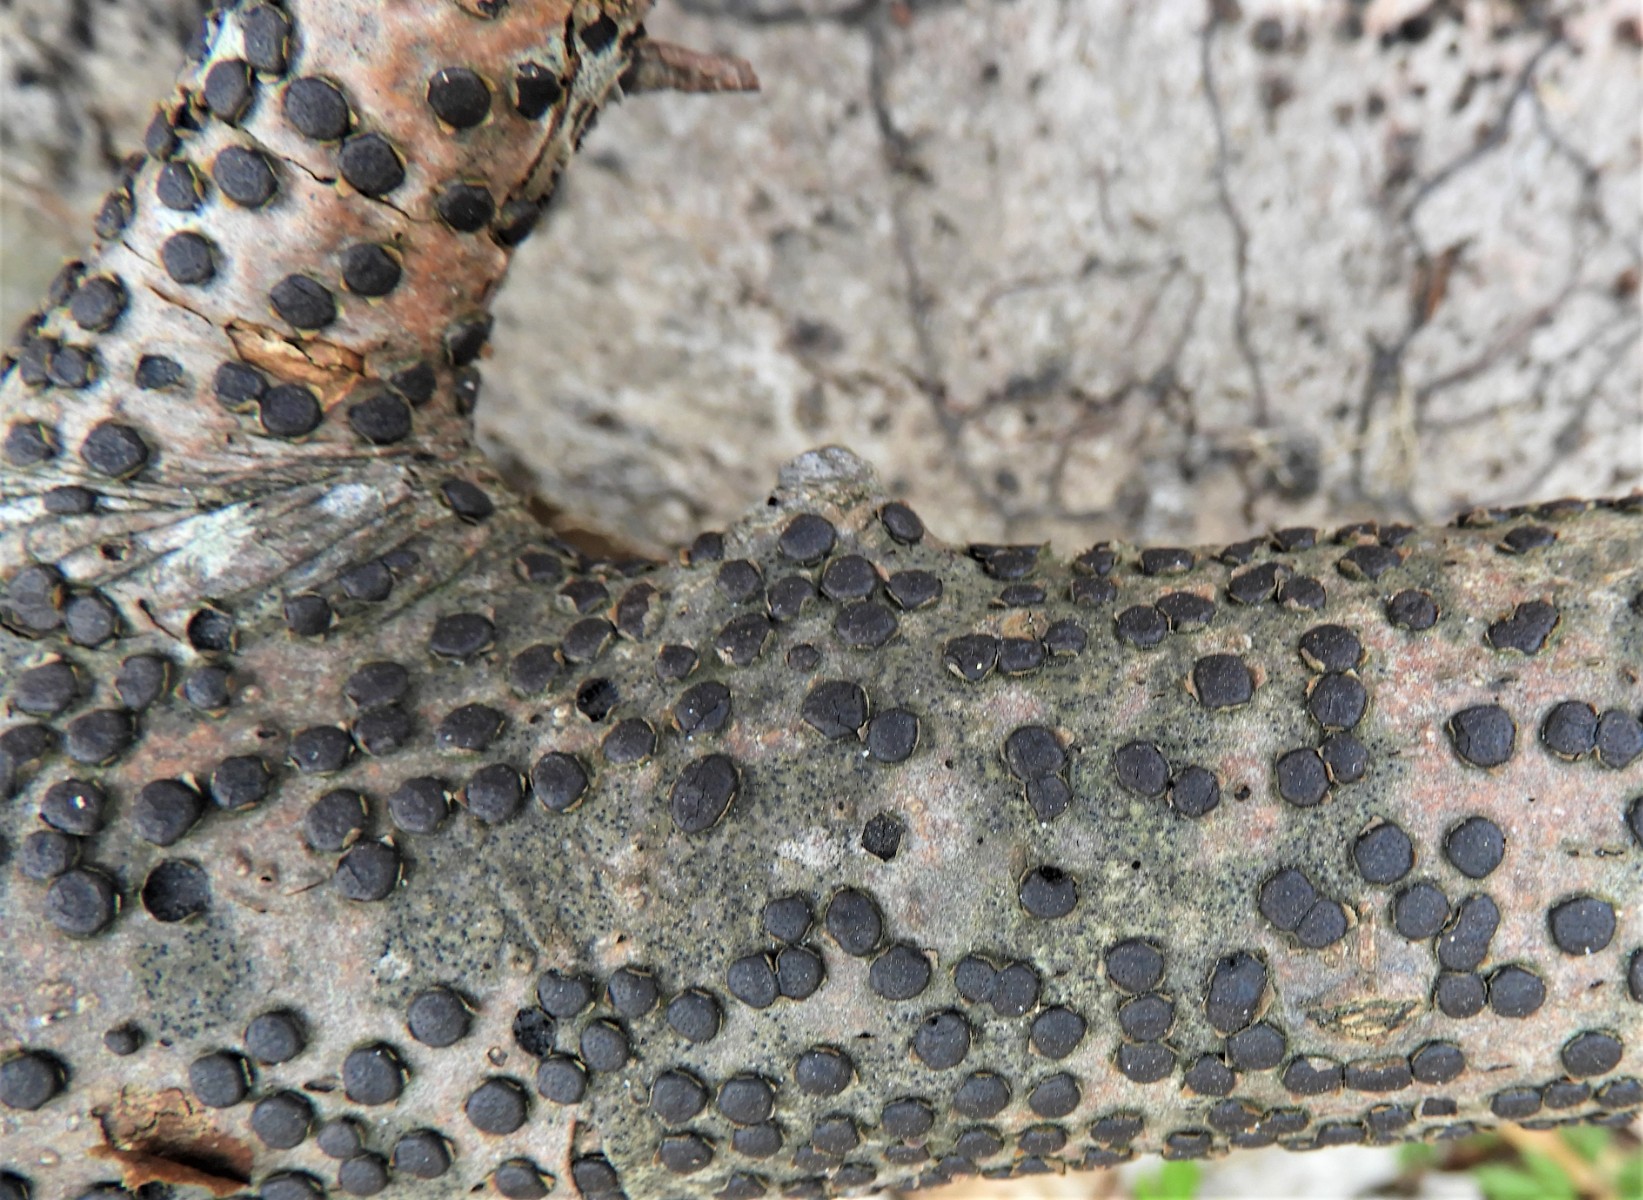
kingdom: Fungi
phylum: Ascomycota
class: Sordariomycetes
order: Xylariales
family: Diatrypaceae
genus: Diatrype
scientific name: Diatrype disciformis
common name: kant-kulskorpe
